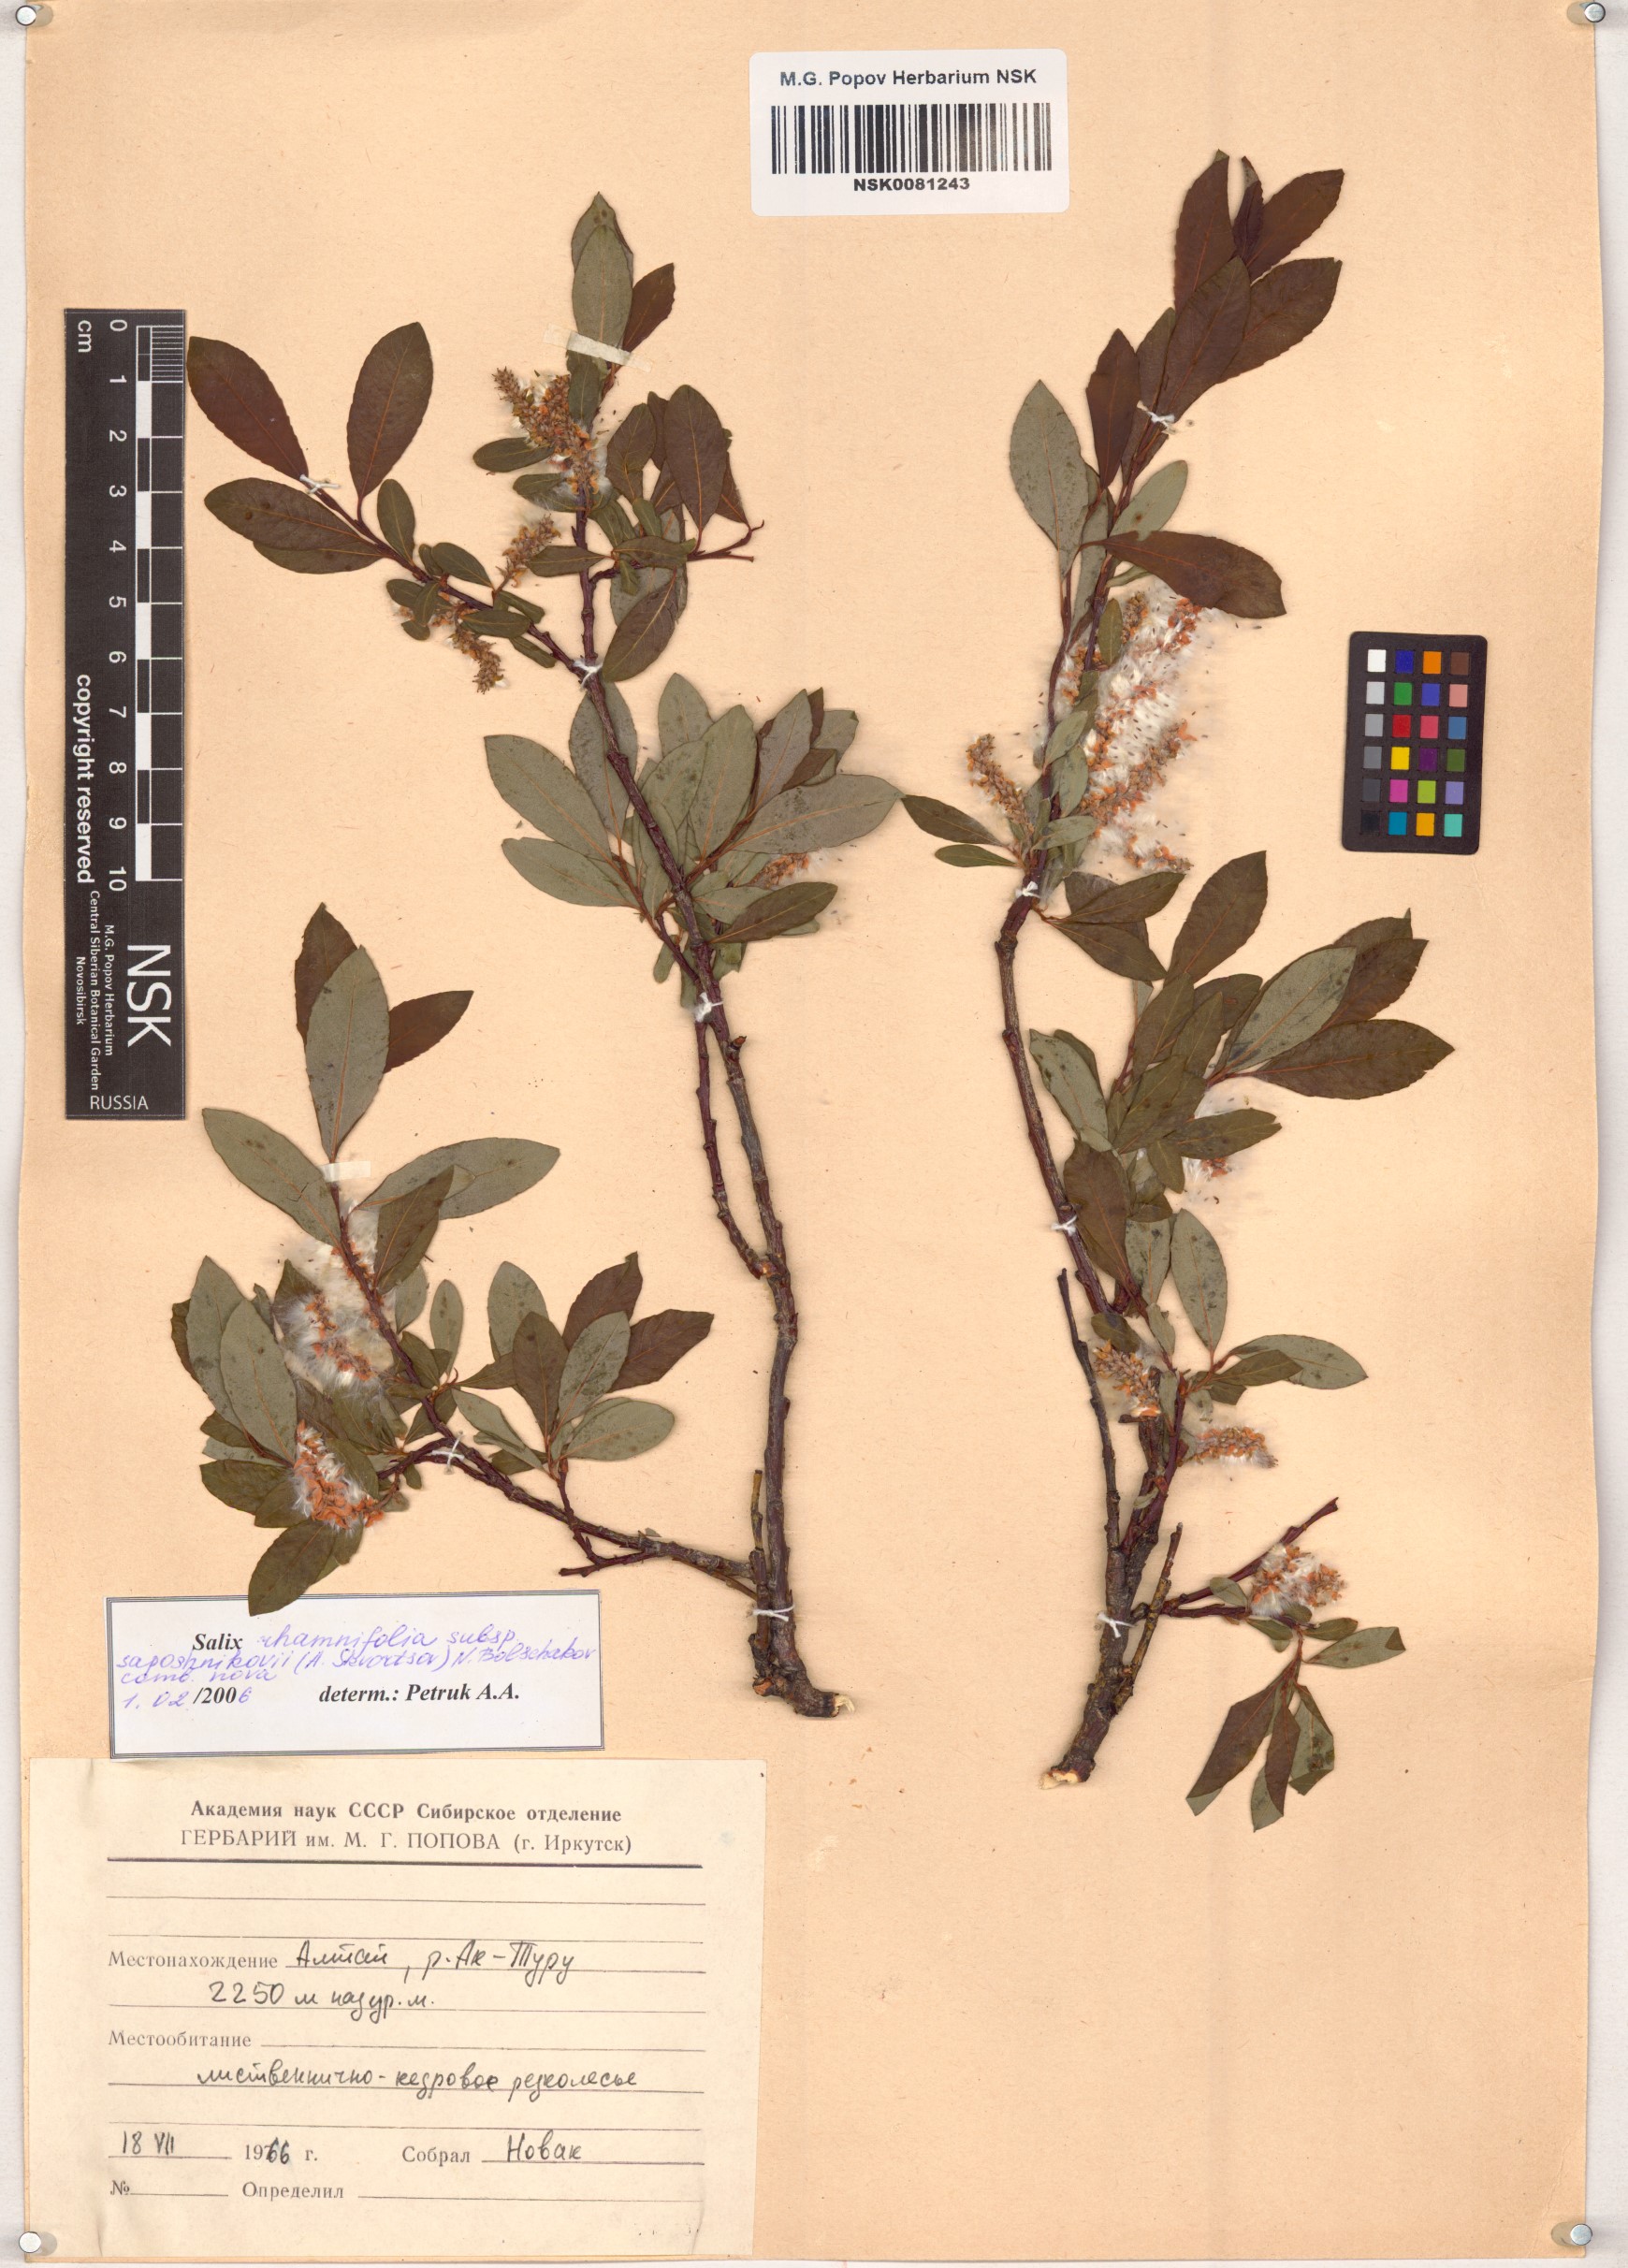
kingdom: Plantae
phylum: Tracheophyta
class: Magnoliopsida
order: Malpighiales
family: Salicaceae
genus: Salix
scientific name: Salix saposhnikovii
